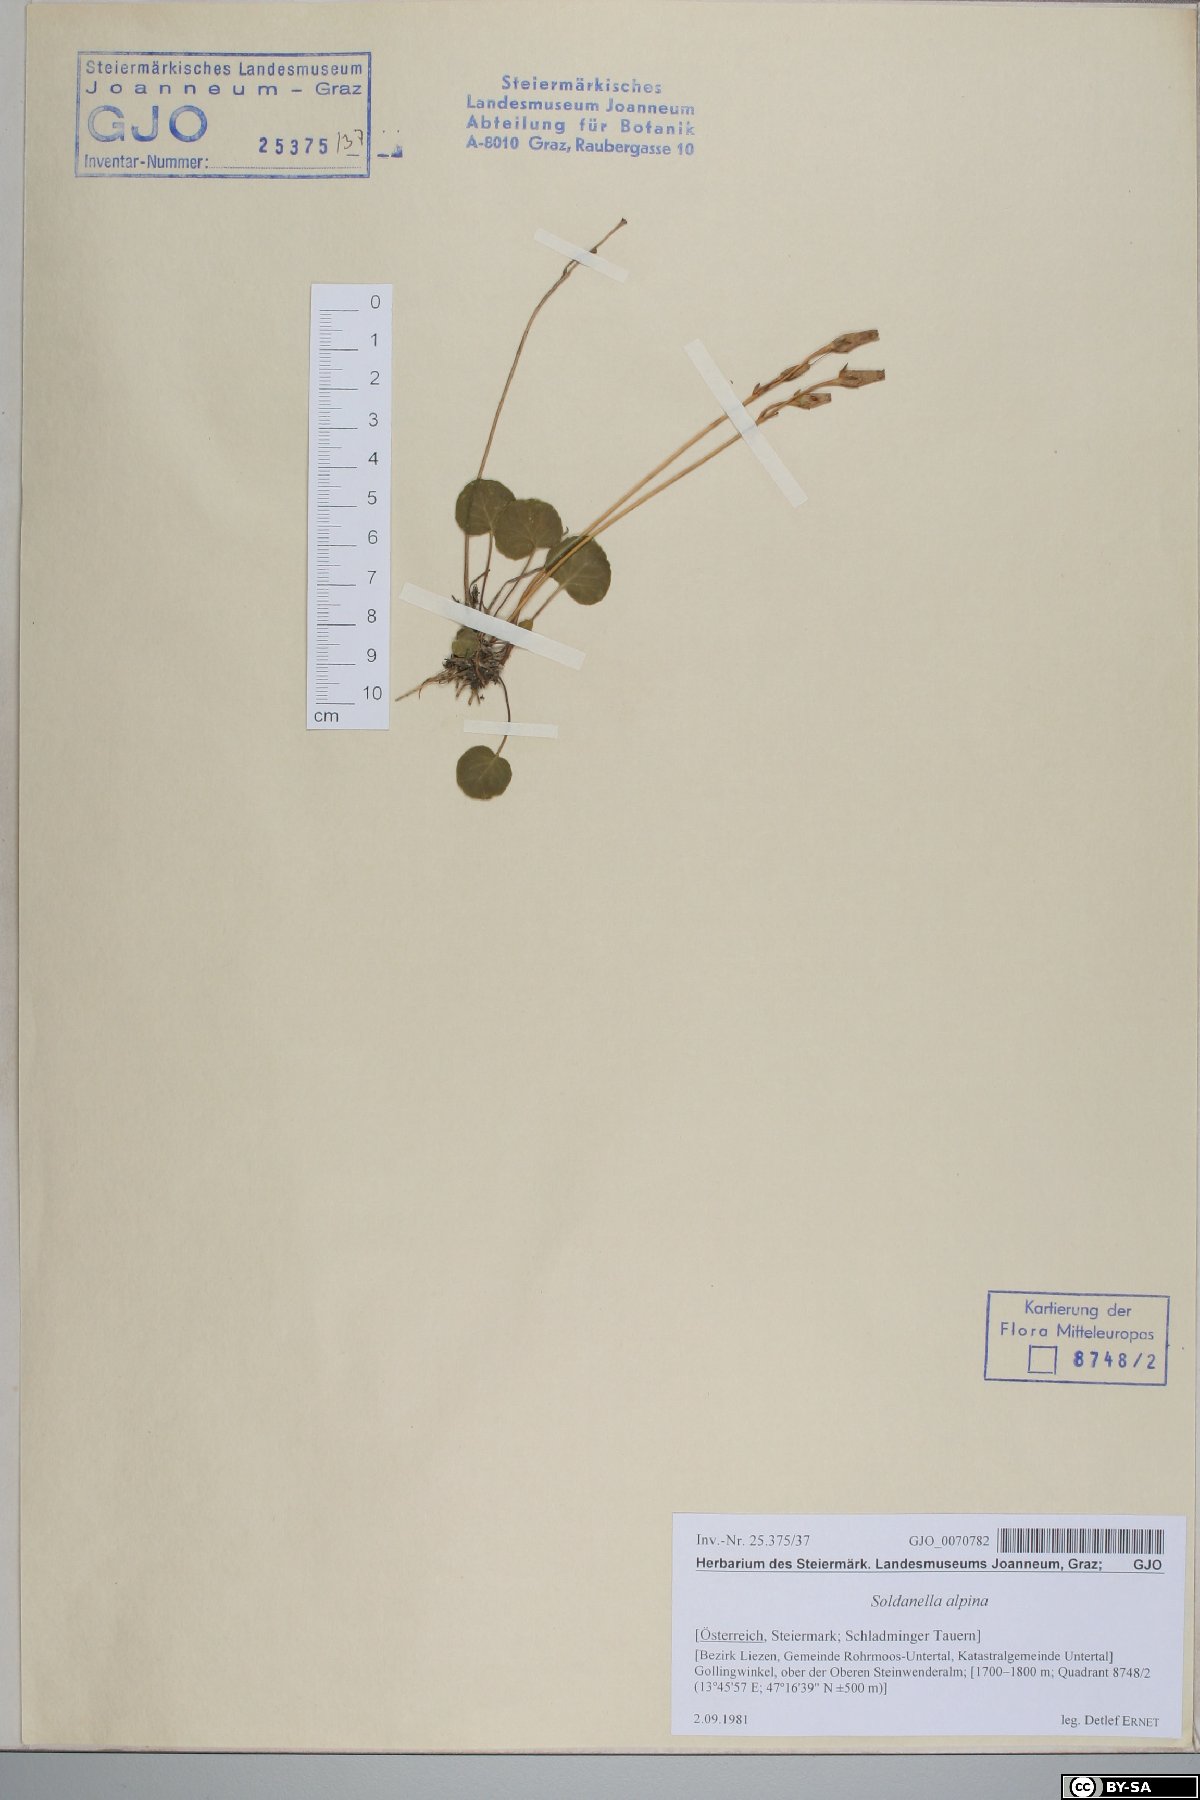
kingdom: Plantae
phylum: Tracheophyta
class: Magnoliopsida
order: Ericales
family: Primulaceae
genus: Soldanella
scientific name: Soldanella alpina
